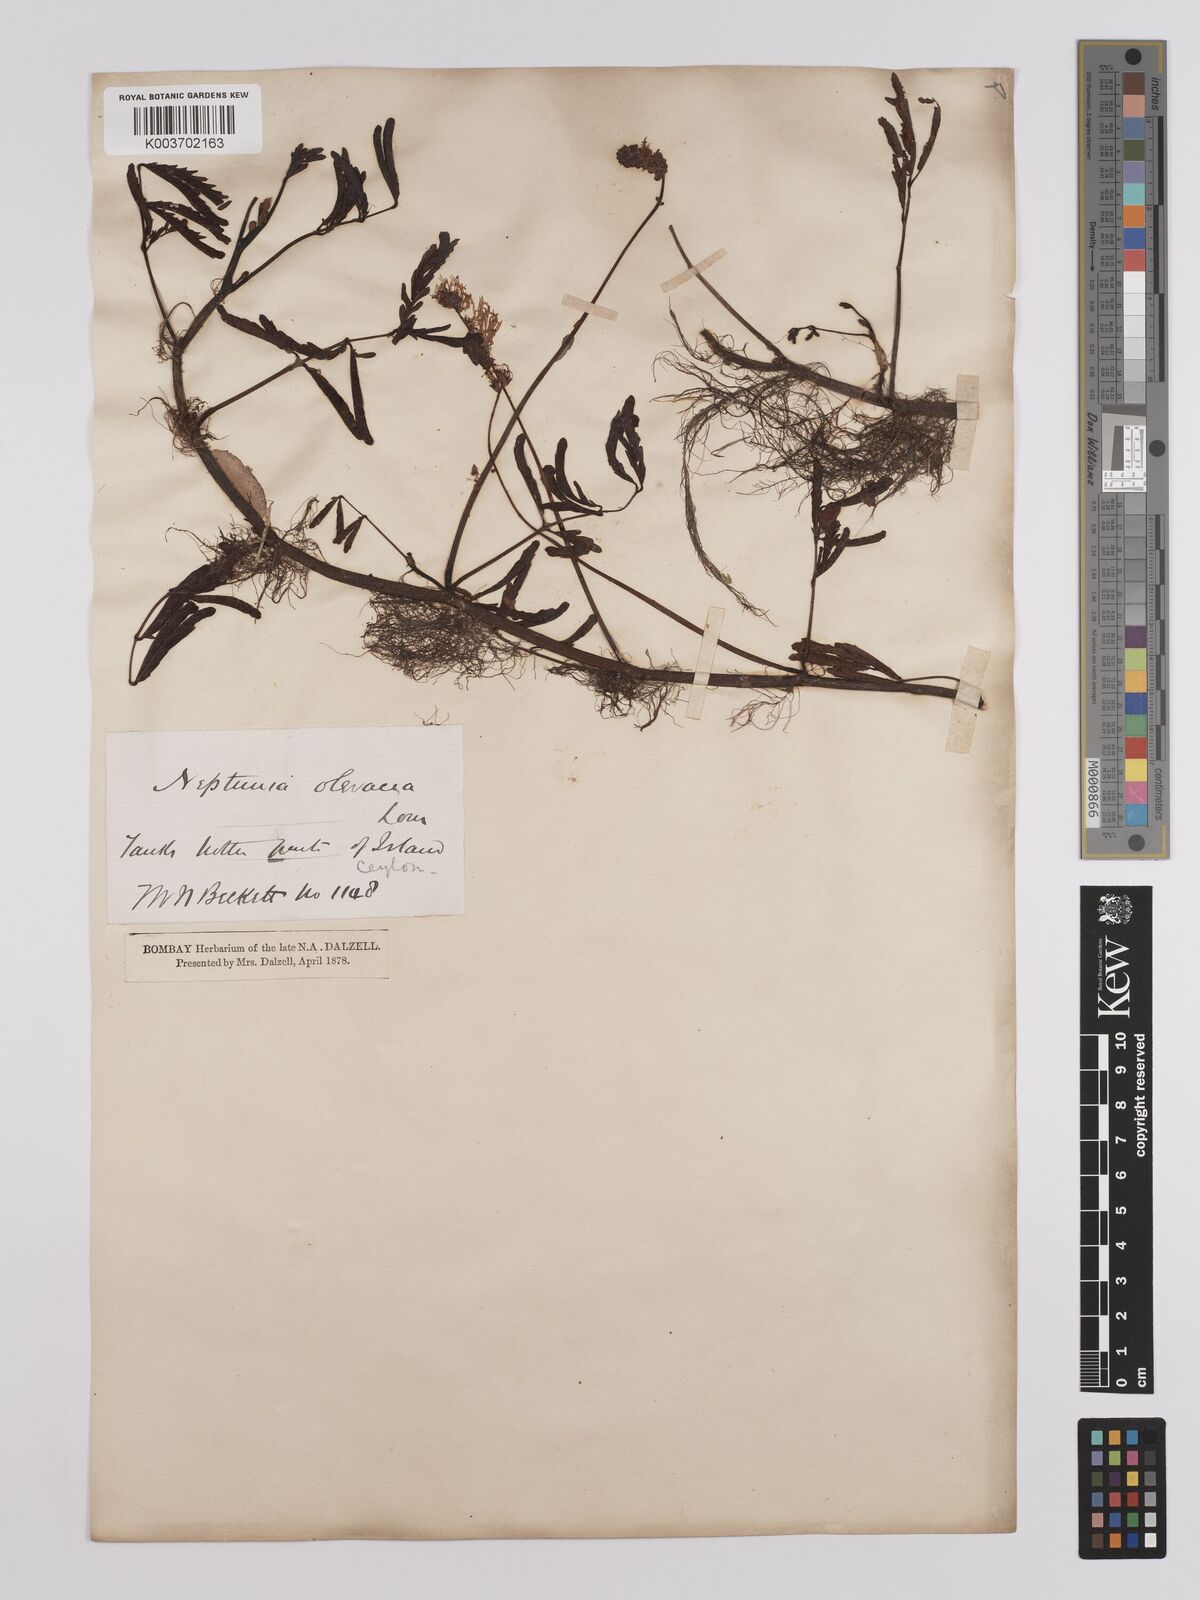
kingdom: Plantae
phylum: Tracheophyta
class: Magnoliopsida
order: Fabales
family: Fabaceae
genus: Neptunia
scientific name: Neptunia prostrata
